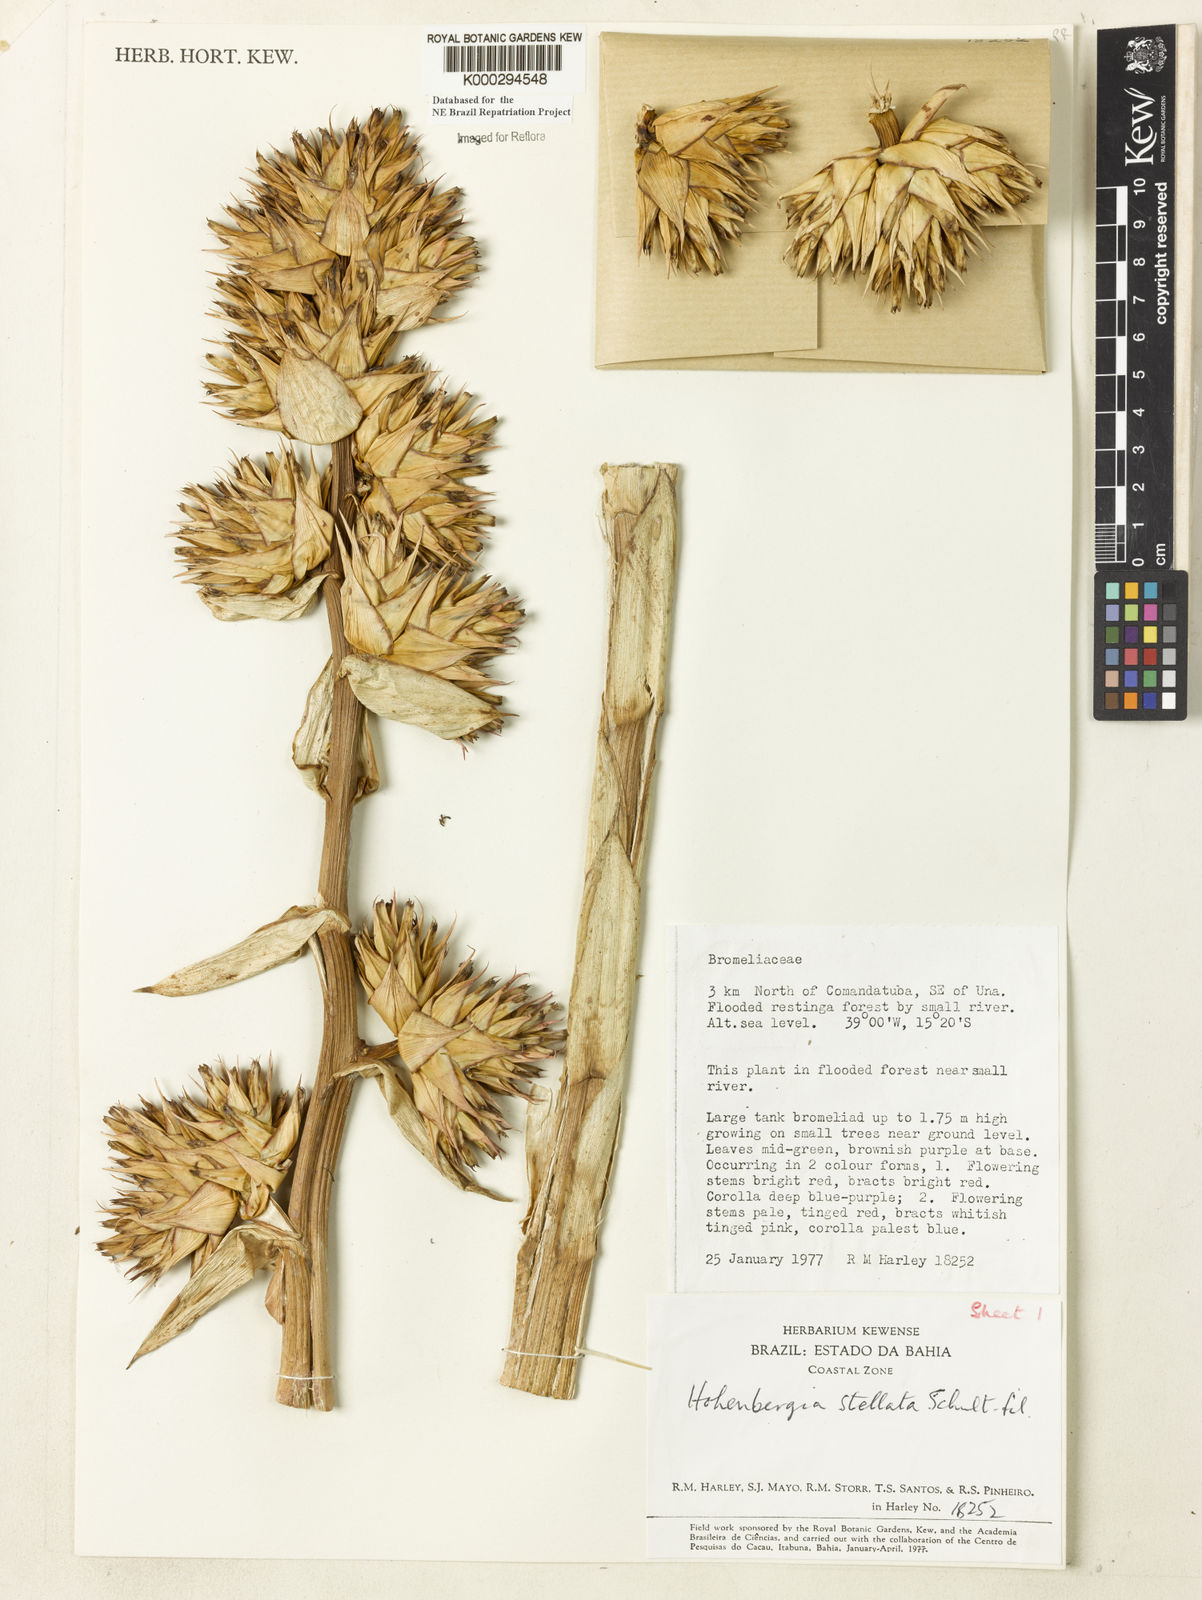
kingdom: Plantae
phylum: Tracheophyta
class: Liliopsida
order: Poales
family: Bromeliaceae
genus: Hohenbergia
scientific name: Hohenbergia stellata
